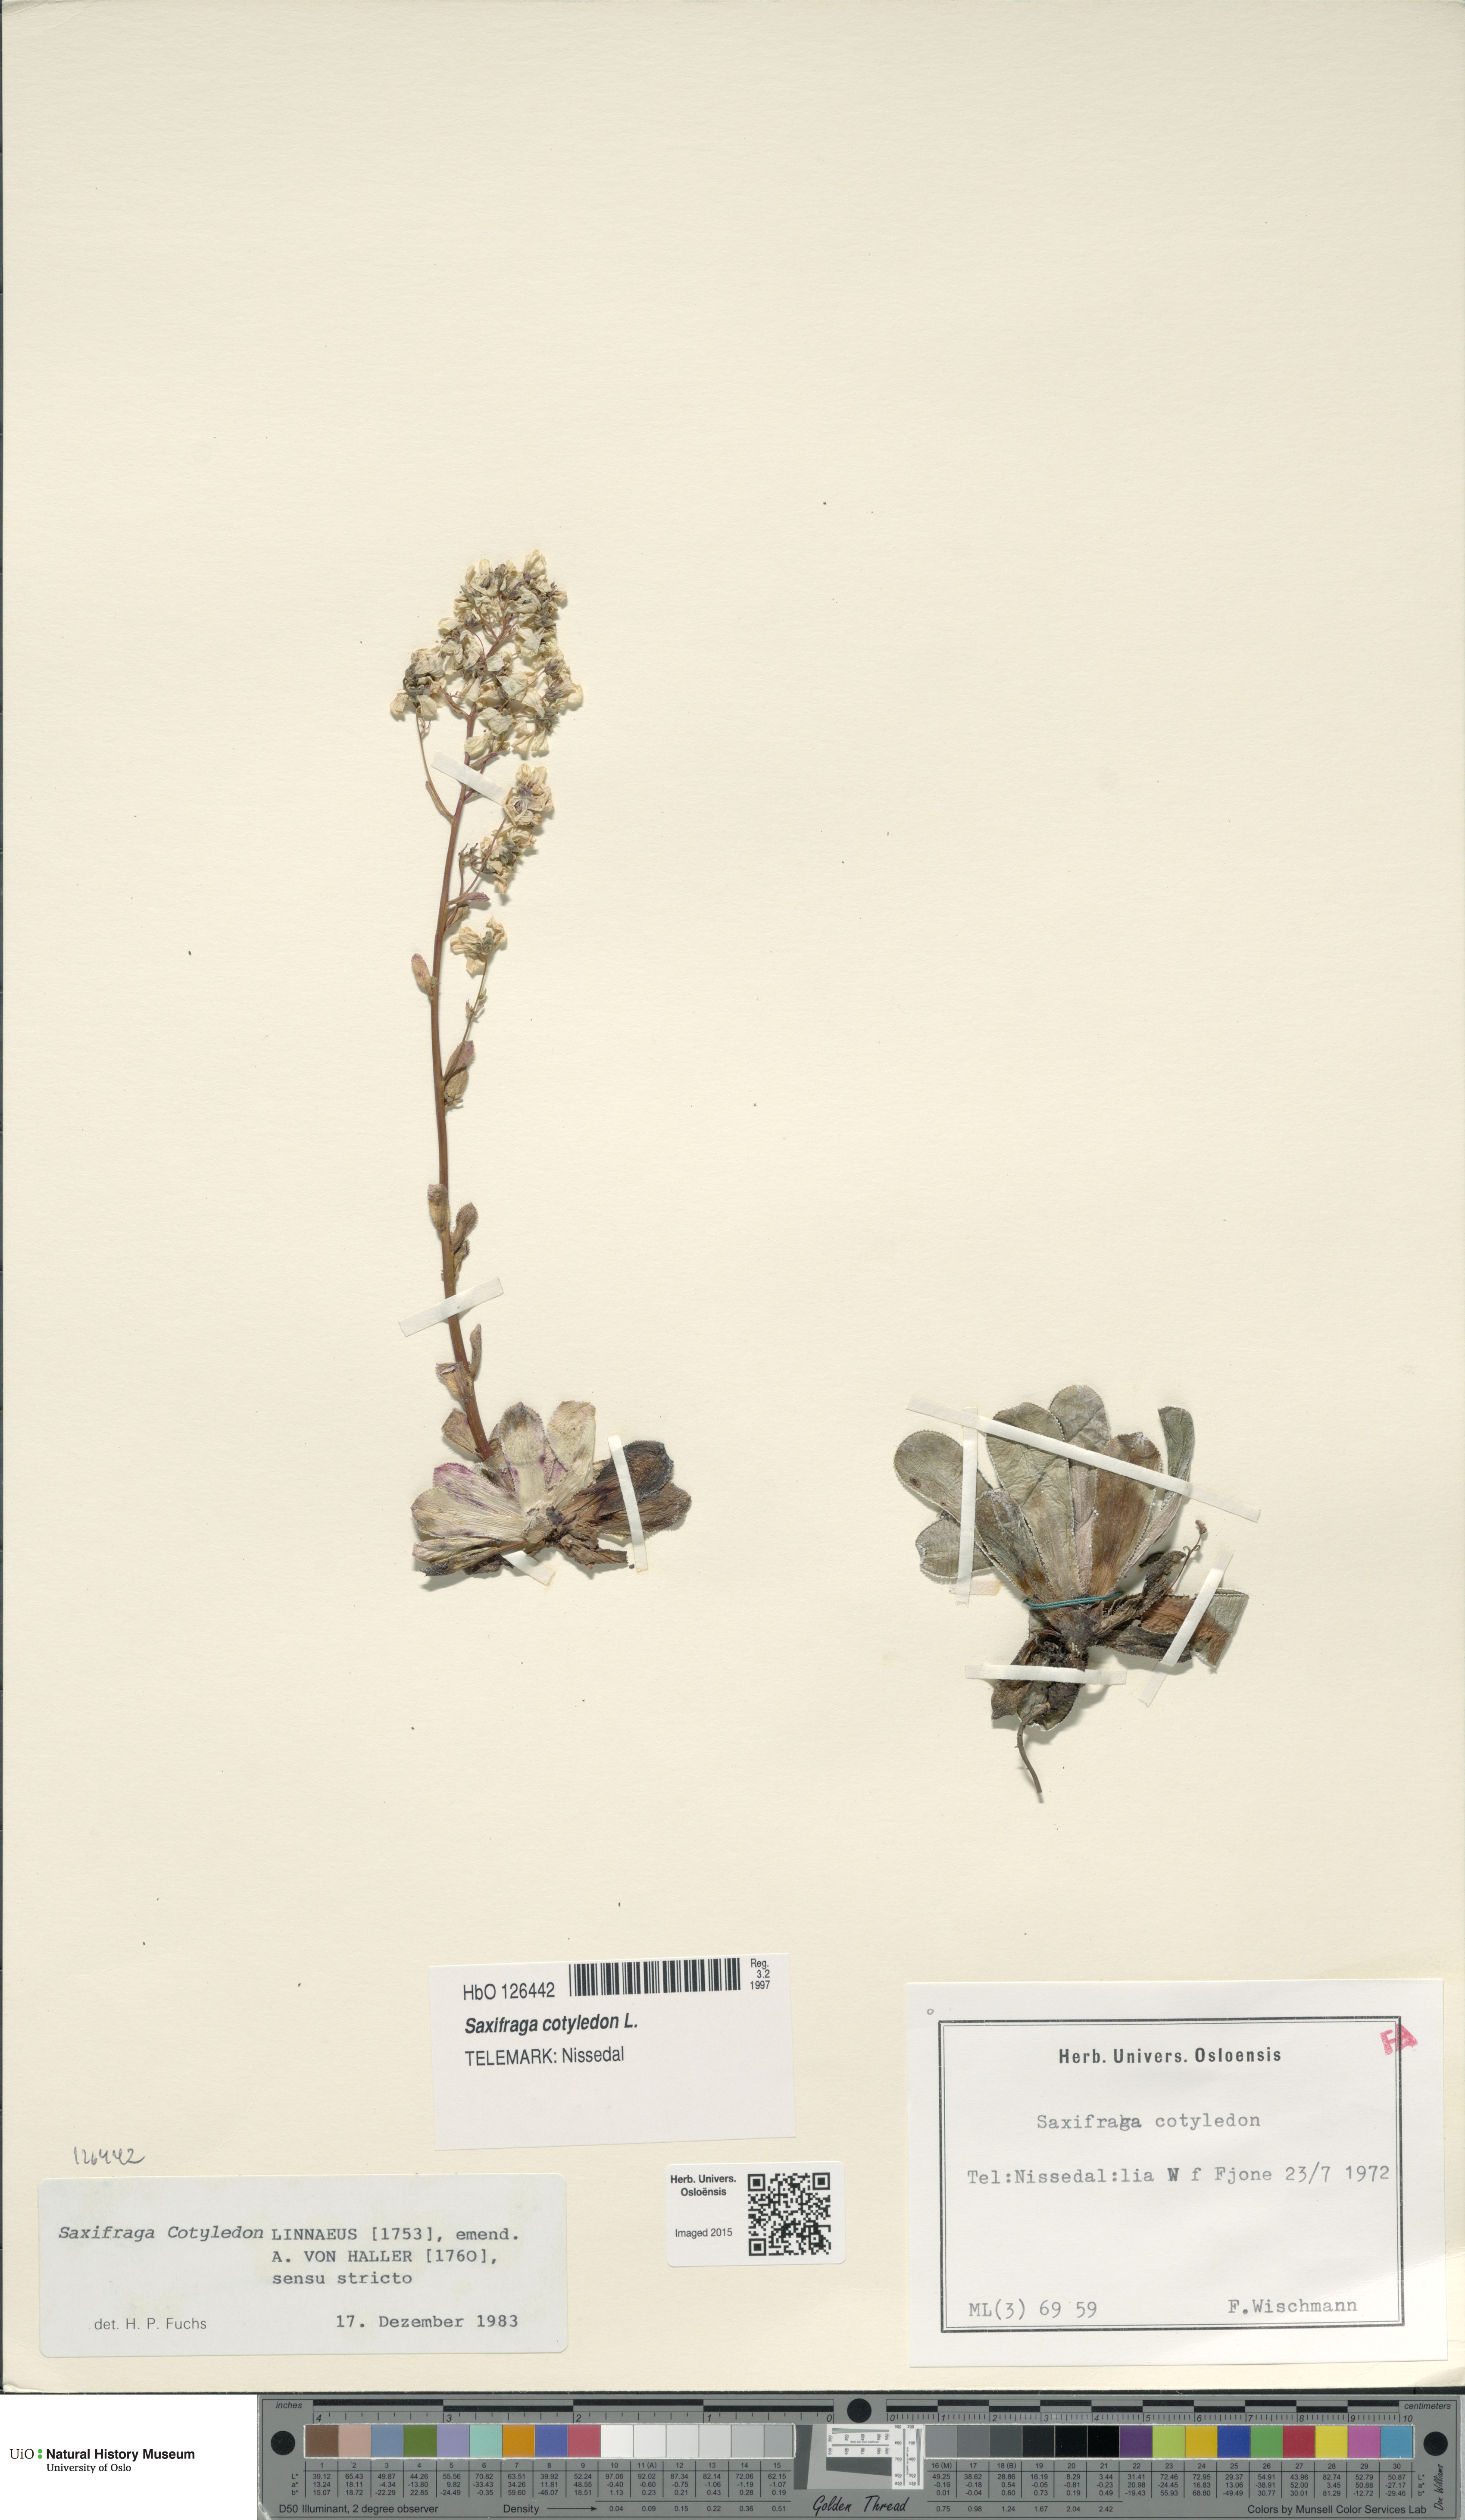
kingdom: Plantae
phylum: Tracheophyta
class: Magnoliopsida
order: Saxifragales
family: Saxifragaceae
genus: Saxifraga
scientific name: Saxifraga cotyledon
